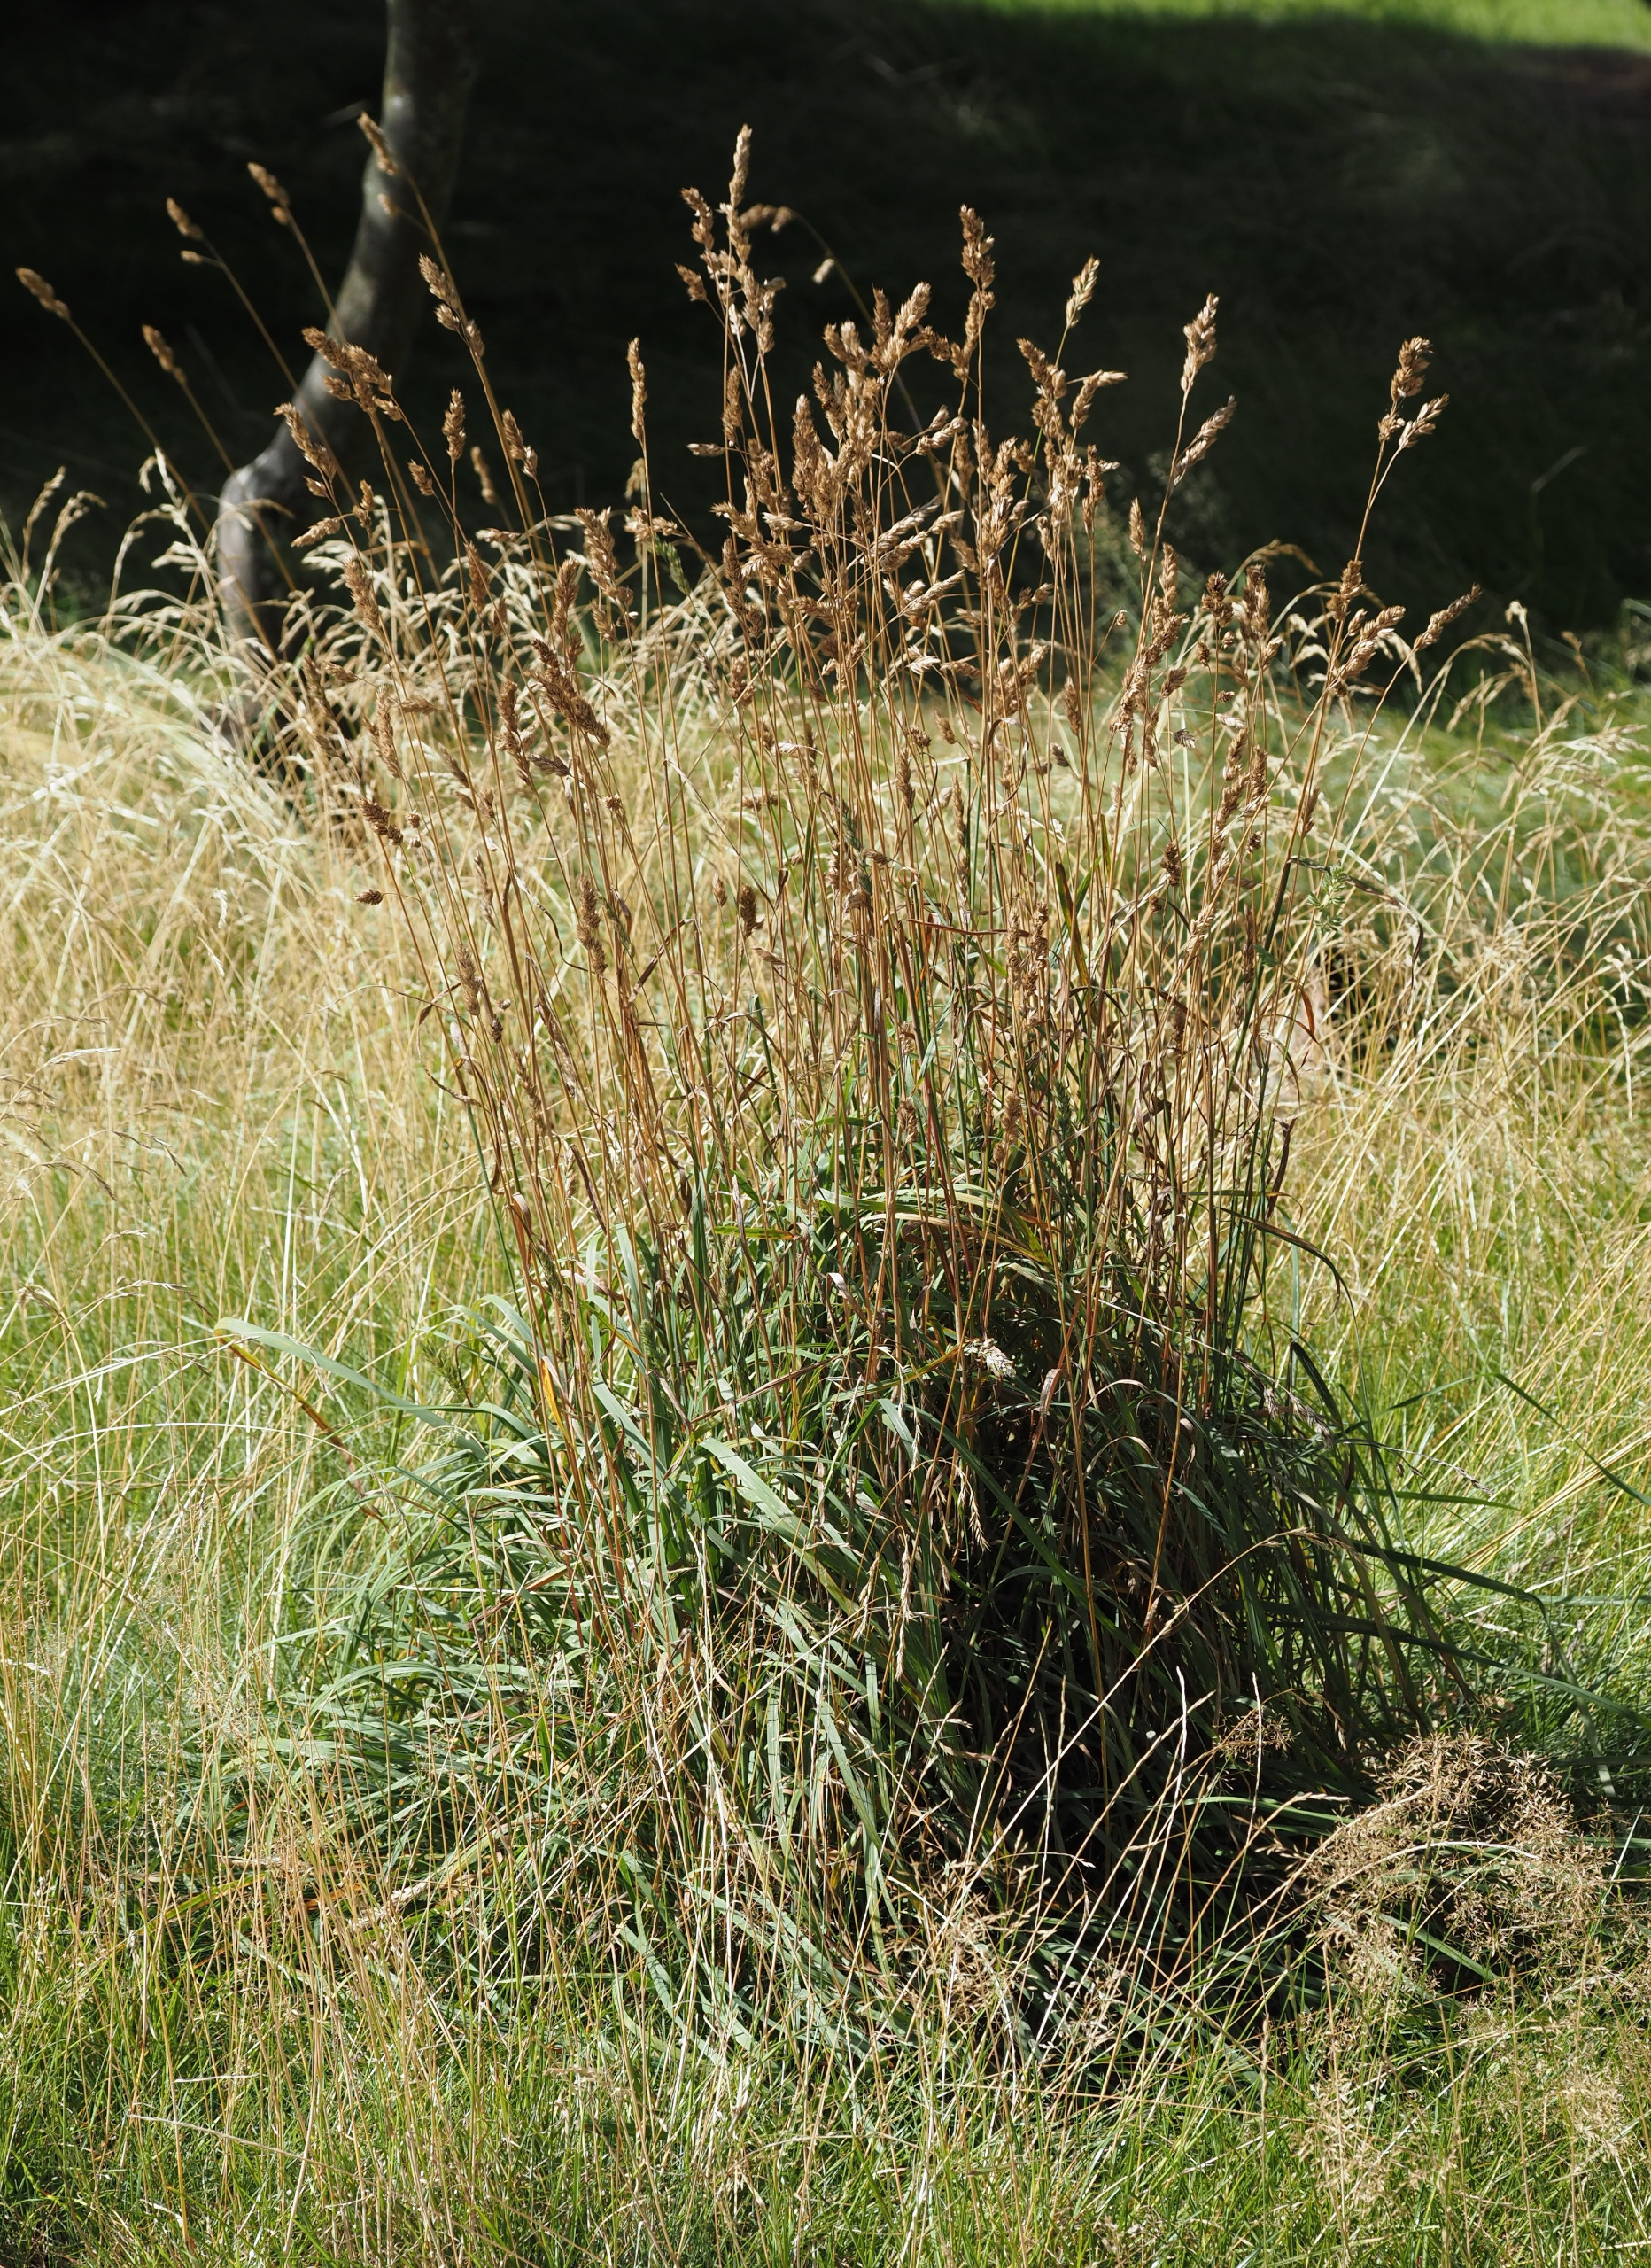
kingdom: Plantae
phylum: Tracheophyta
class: Liliopsida
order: Poales
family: Poaceae
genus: Dactylis
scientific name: Dactylis glomerata
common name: Almindelig hundegræs
